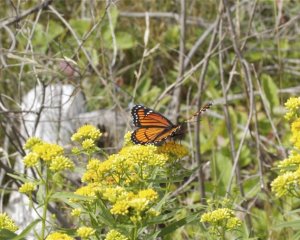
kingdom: Animalia
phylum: Arthropoda
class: Insecta
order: Lepidoptera
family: Nymphalidae
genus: Limenitis
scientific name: Limenitis archippus
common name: Viceroy
